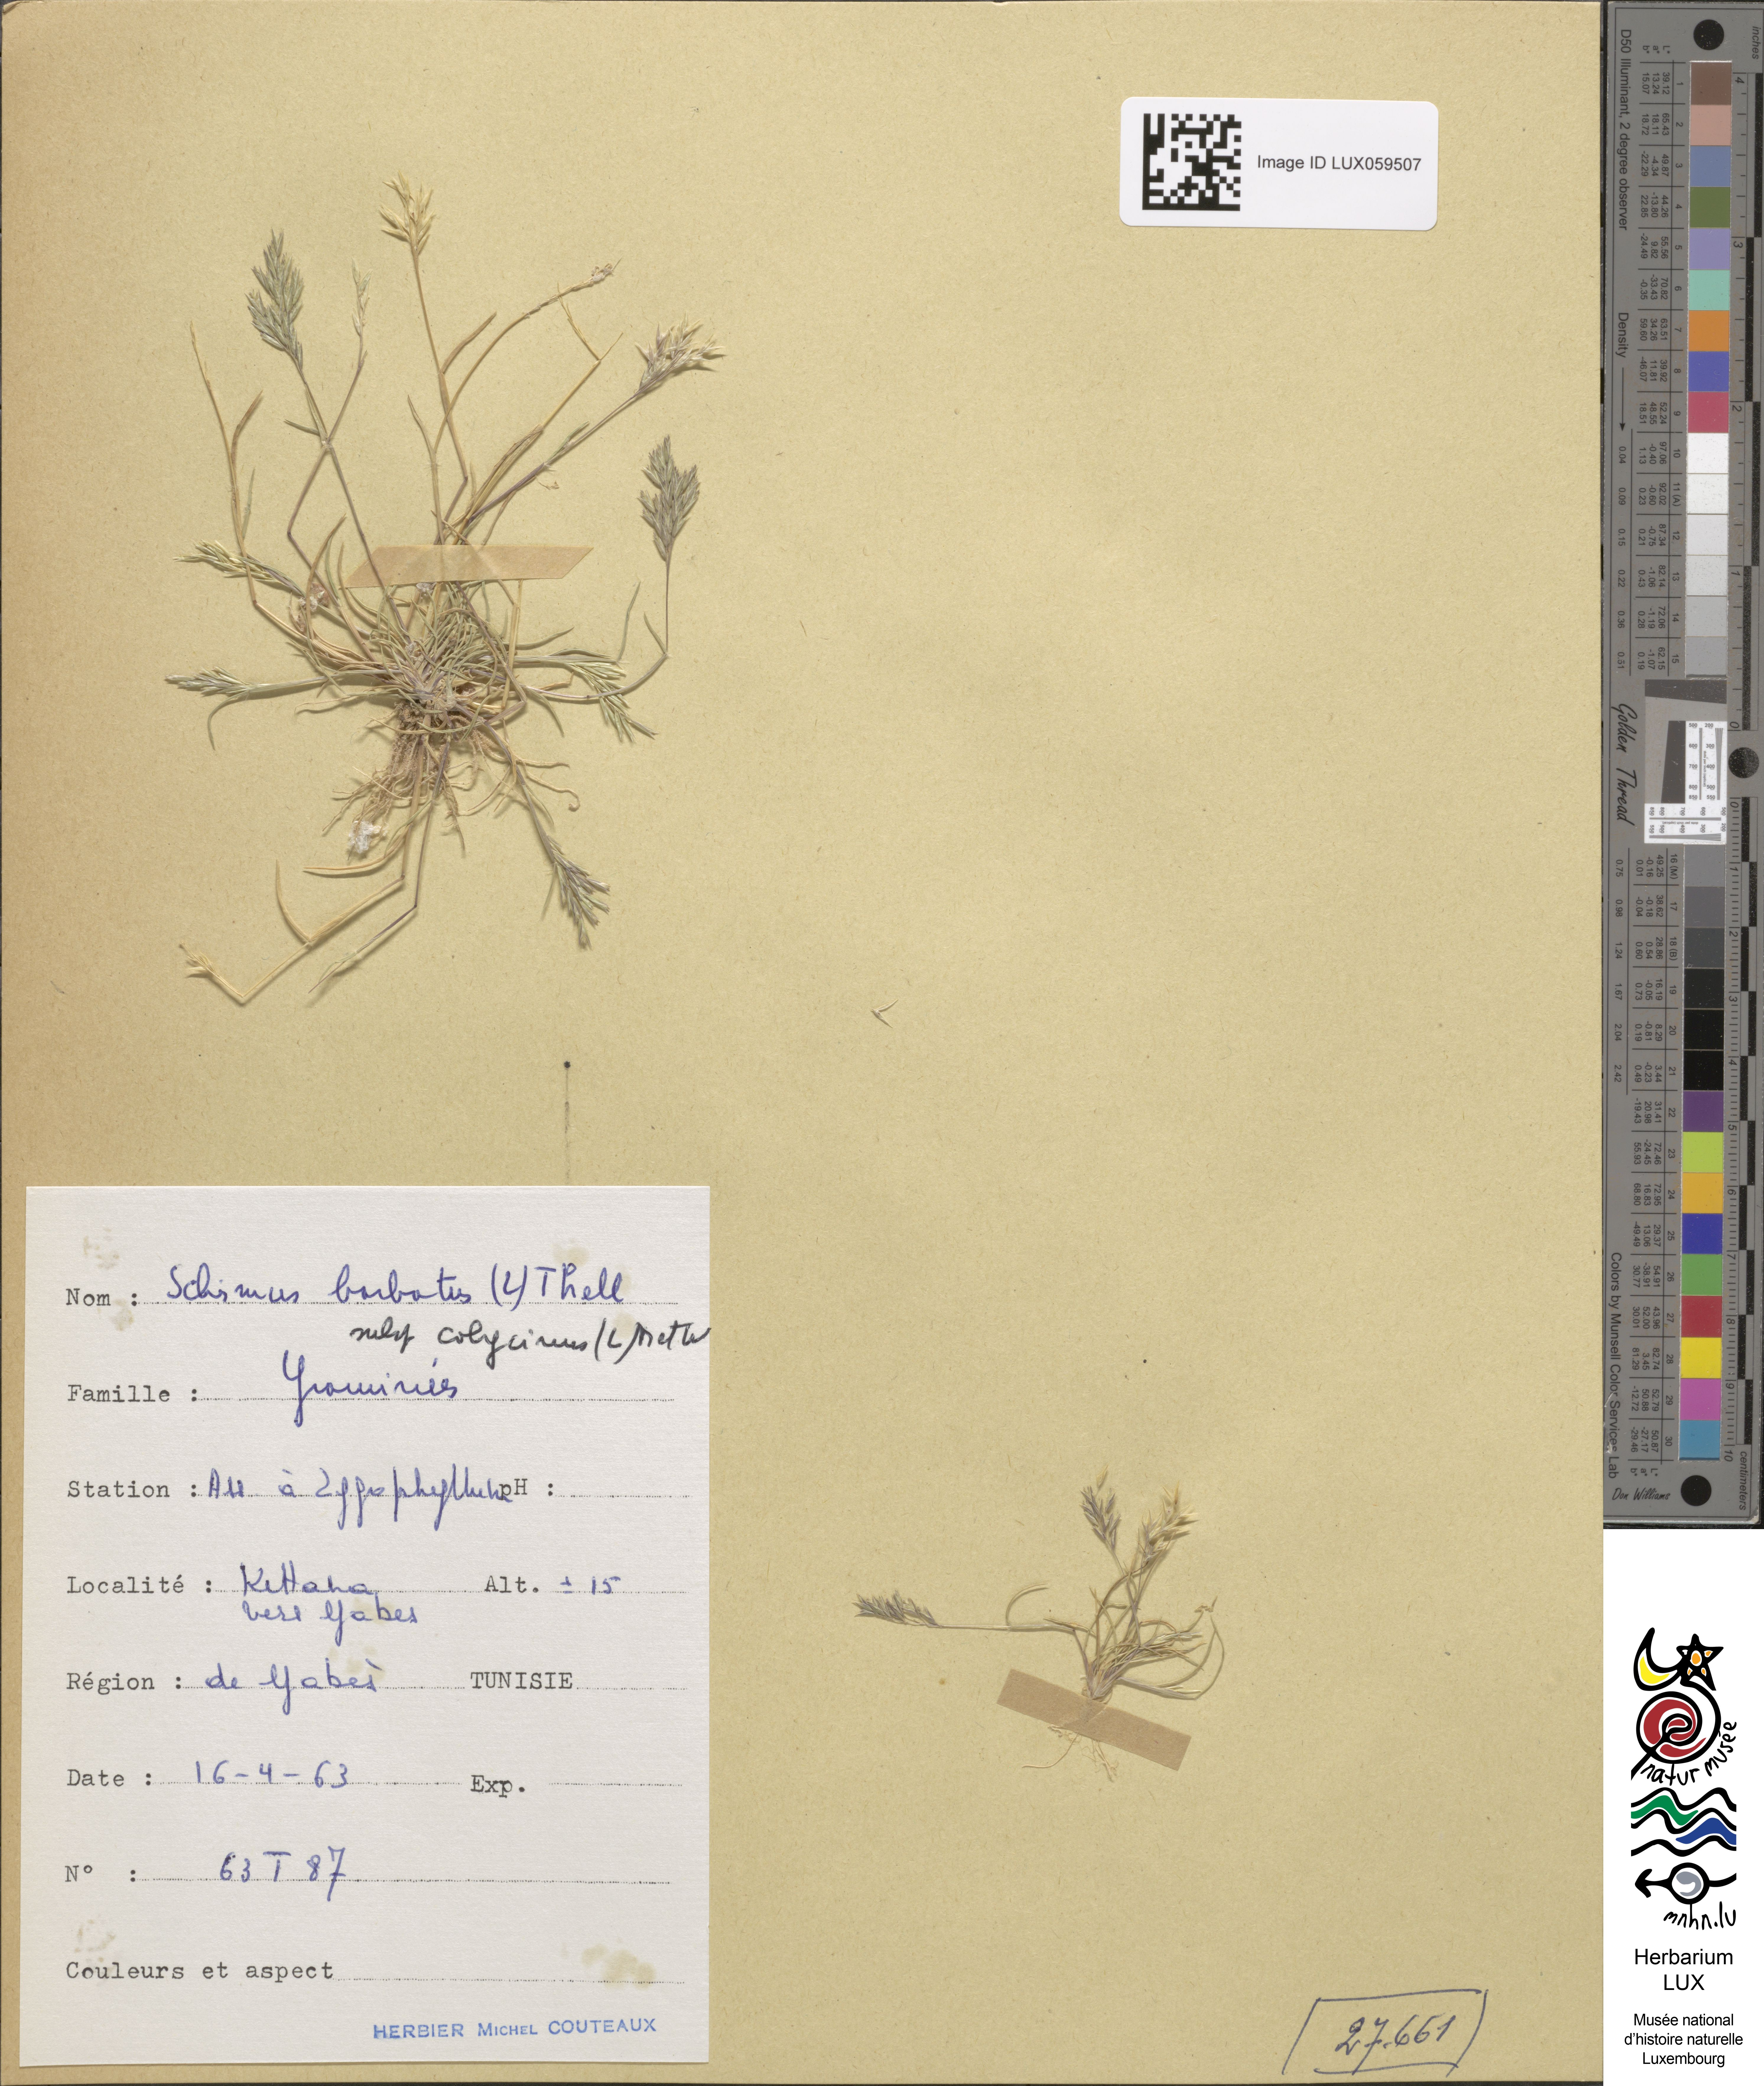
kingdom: Plantae
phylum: Tracheophyta
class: Liliopsida
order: Poales
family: Poaceae
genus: Schismus
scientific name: Schismus barbatus
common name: Kelch-grass
